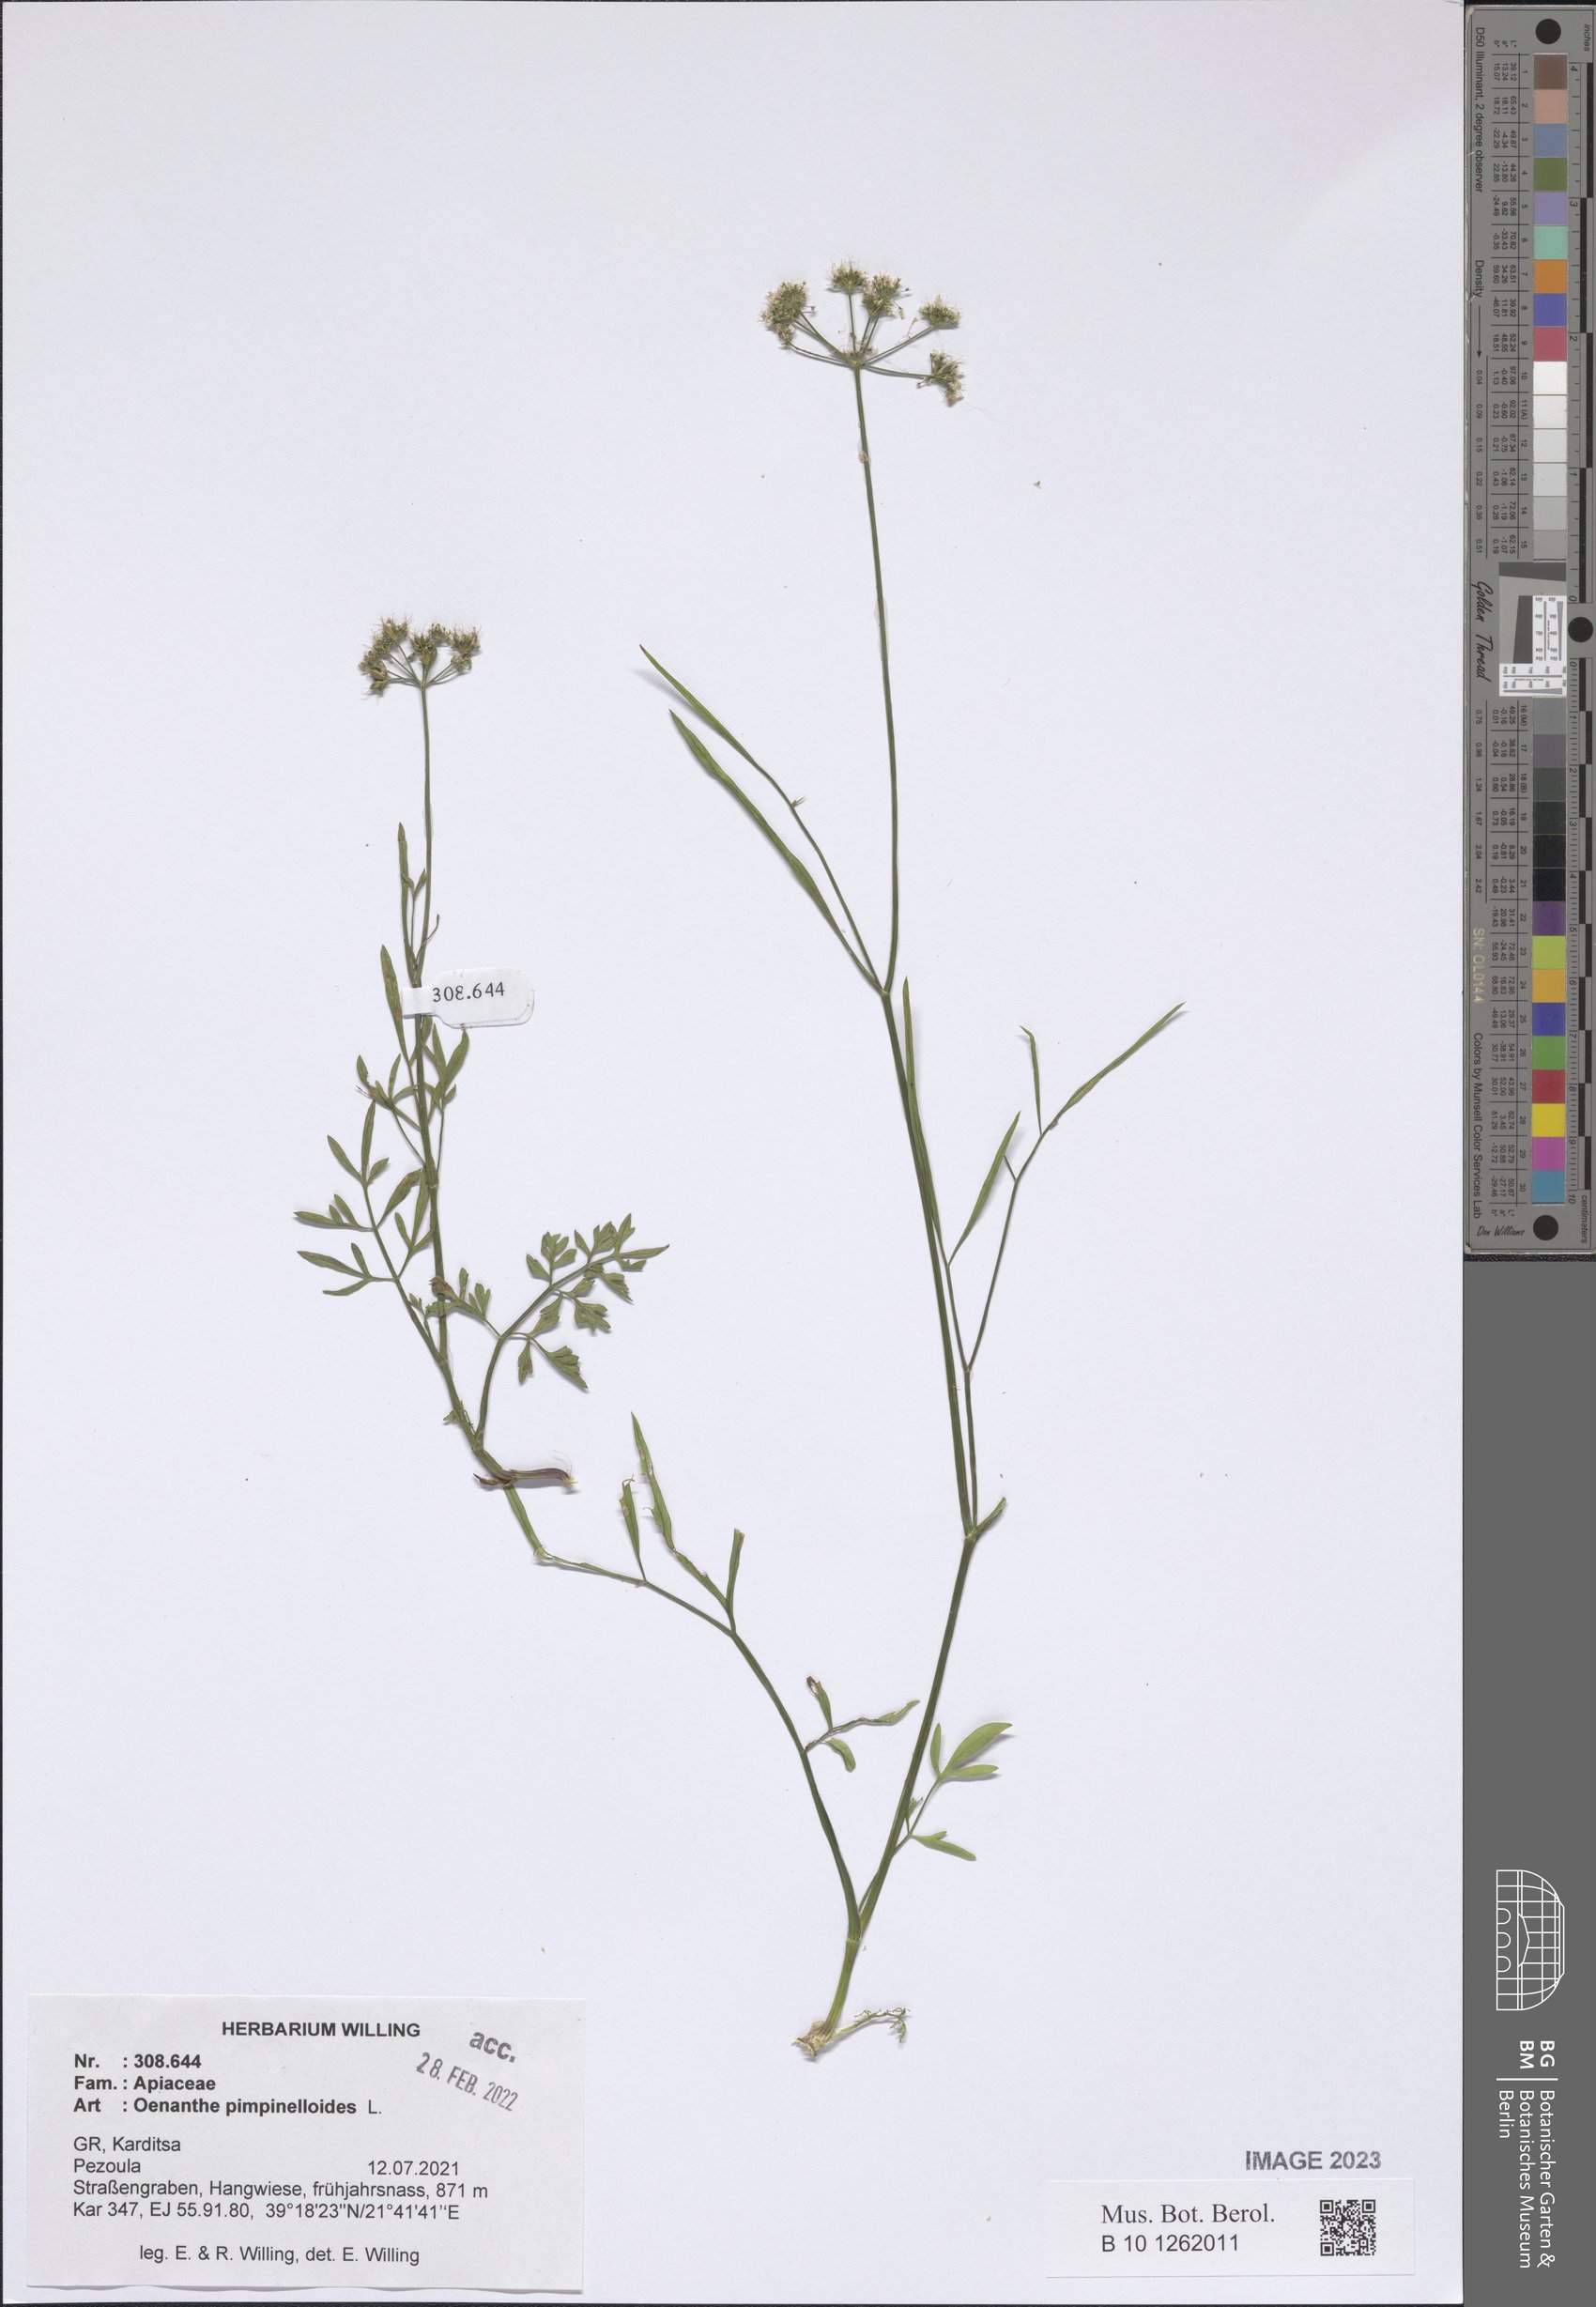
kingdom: Plantae
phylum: Tracheophyta
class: Magnoliopsida
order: Apiales
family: Apiaceae
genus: Oenanthe
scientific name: Oenanthe pimpinelloides
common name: Corky-fruited water-dropwort
